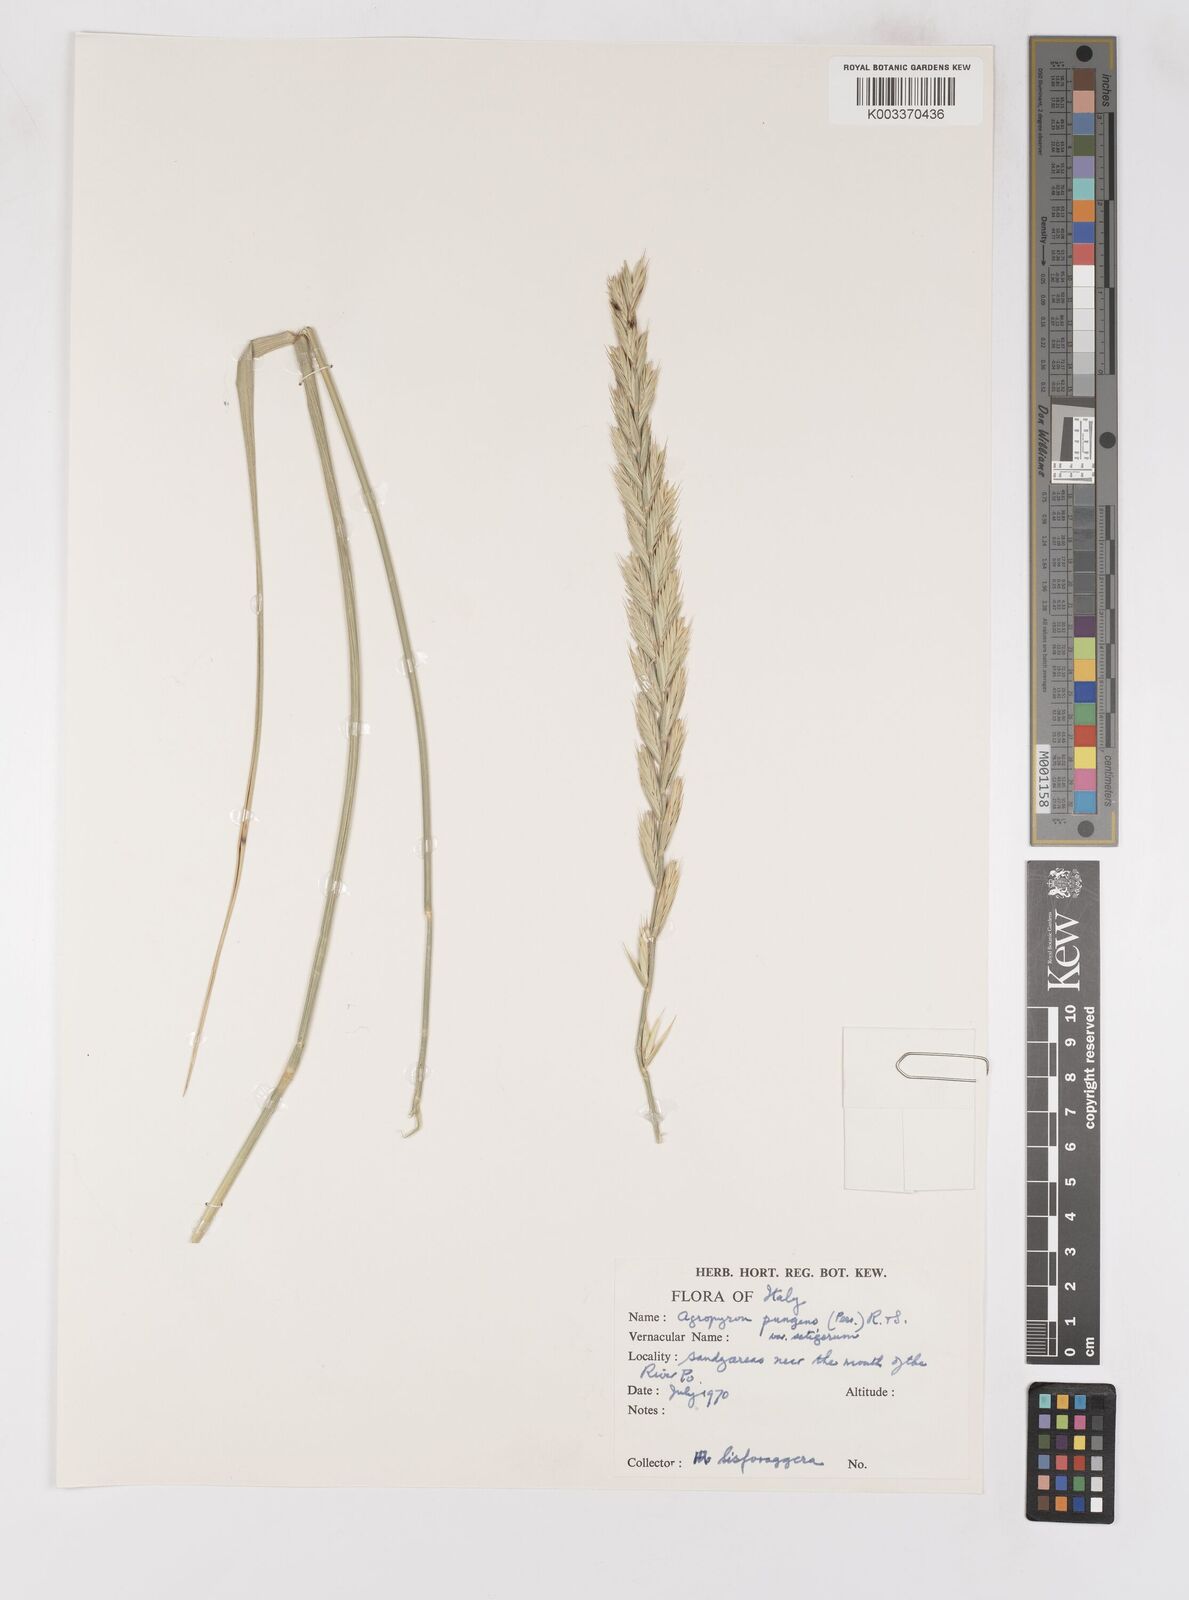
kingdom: Plantae
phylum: Tracheophyta
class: Liliopsida
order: Poales
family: Poaceae
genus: Elymus
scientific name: Elymus oliveri
